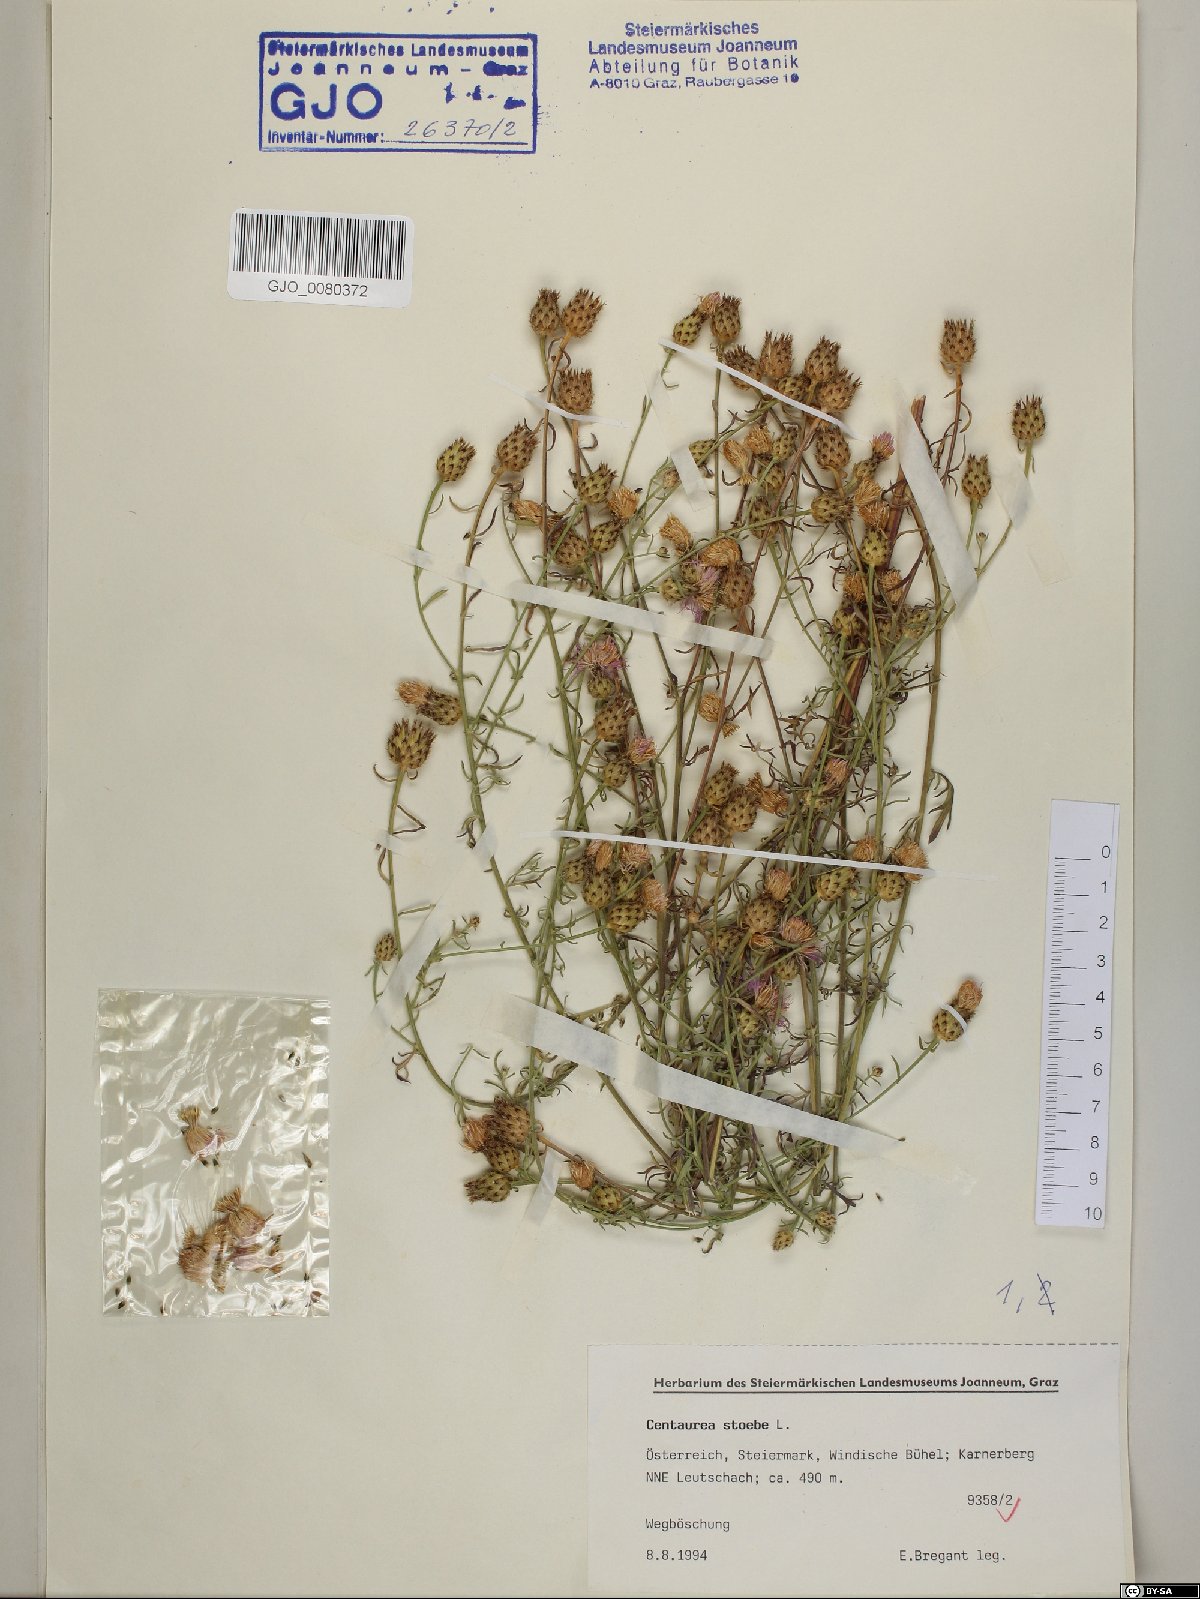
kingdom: Plantae
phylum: Tracheophyta
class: Magnoliopsida
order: Asterales
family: Asteraceae
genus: Centaurea
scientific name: Centaurea stoebe
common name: Spotted knapweed
